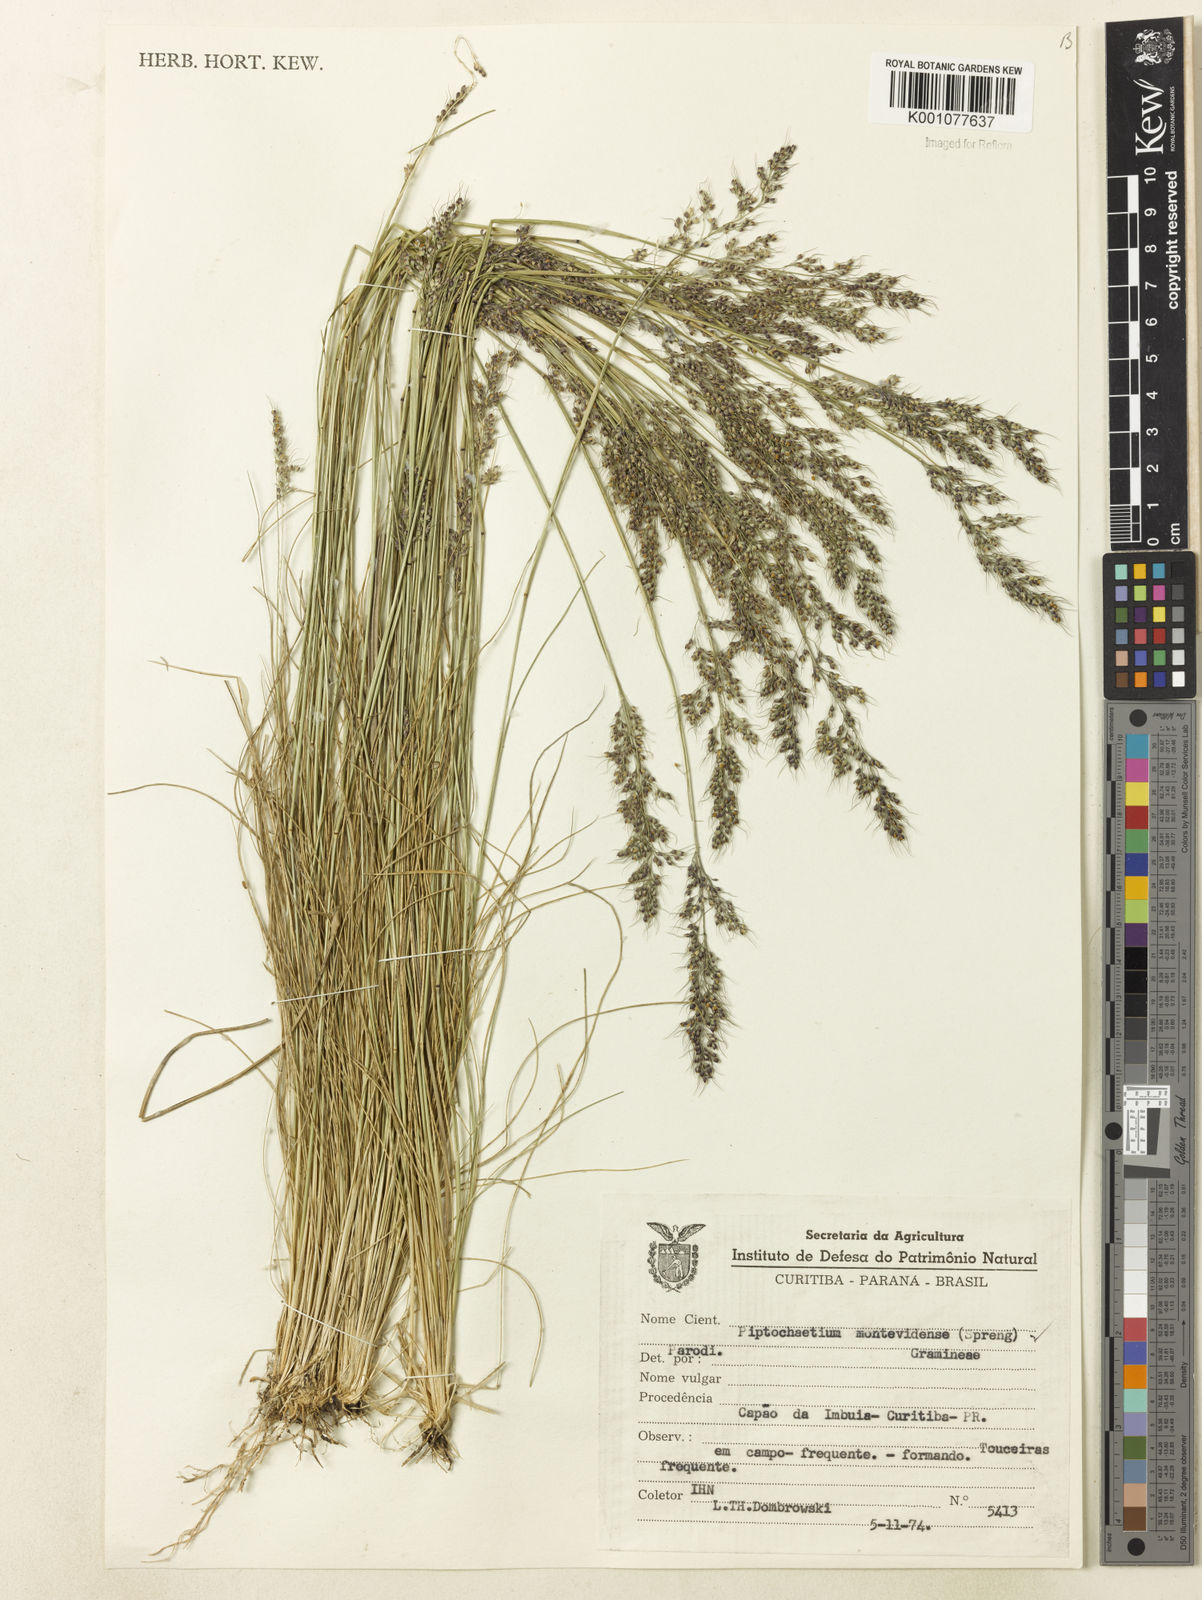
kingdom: Plantae
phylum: Tracheophyta
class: Liliopsida
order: Poales
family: Poaceae
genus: Piptochaetium
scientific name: Piptochaetium montevidense
